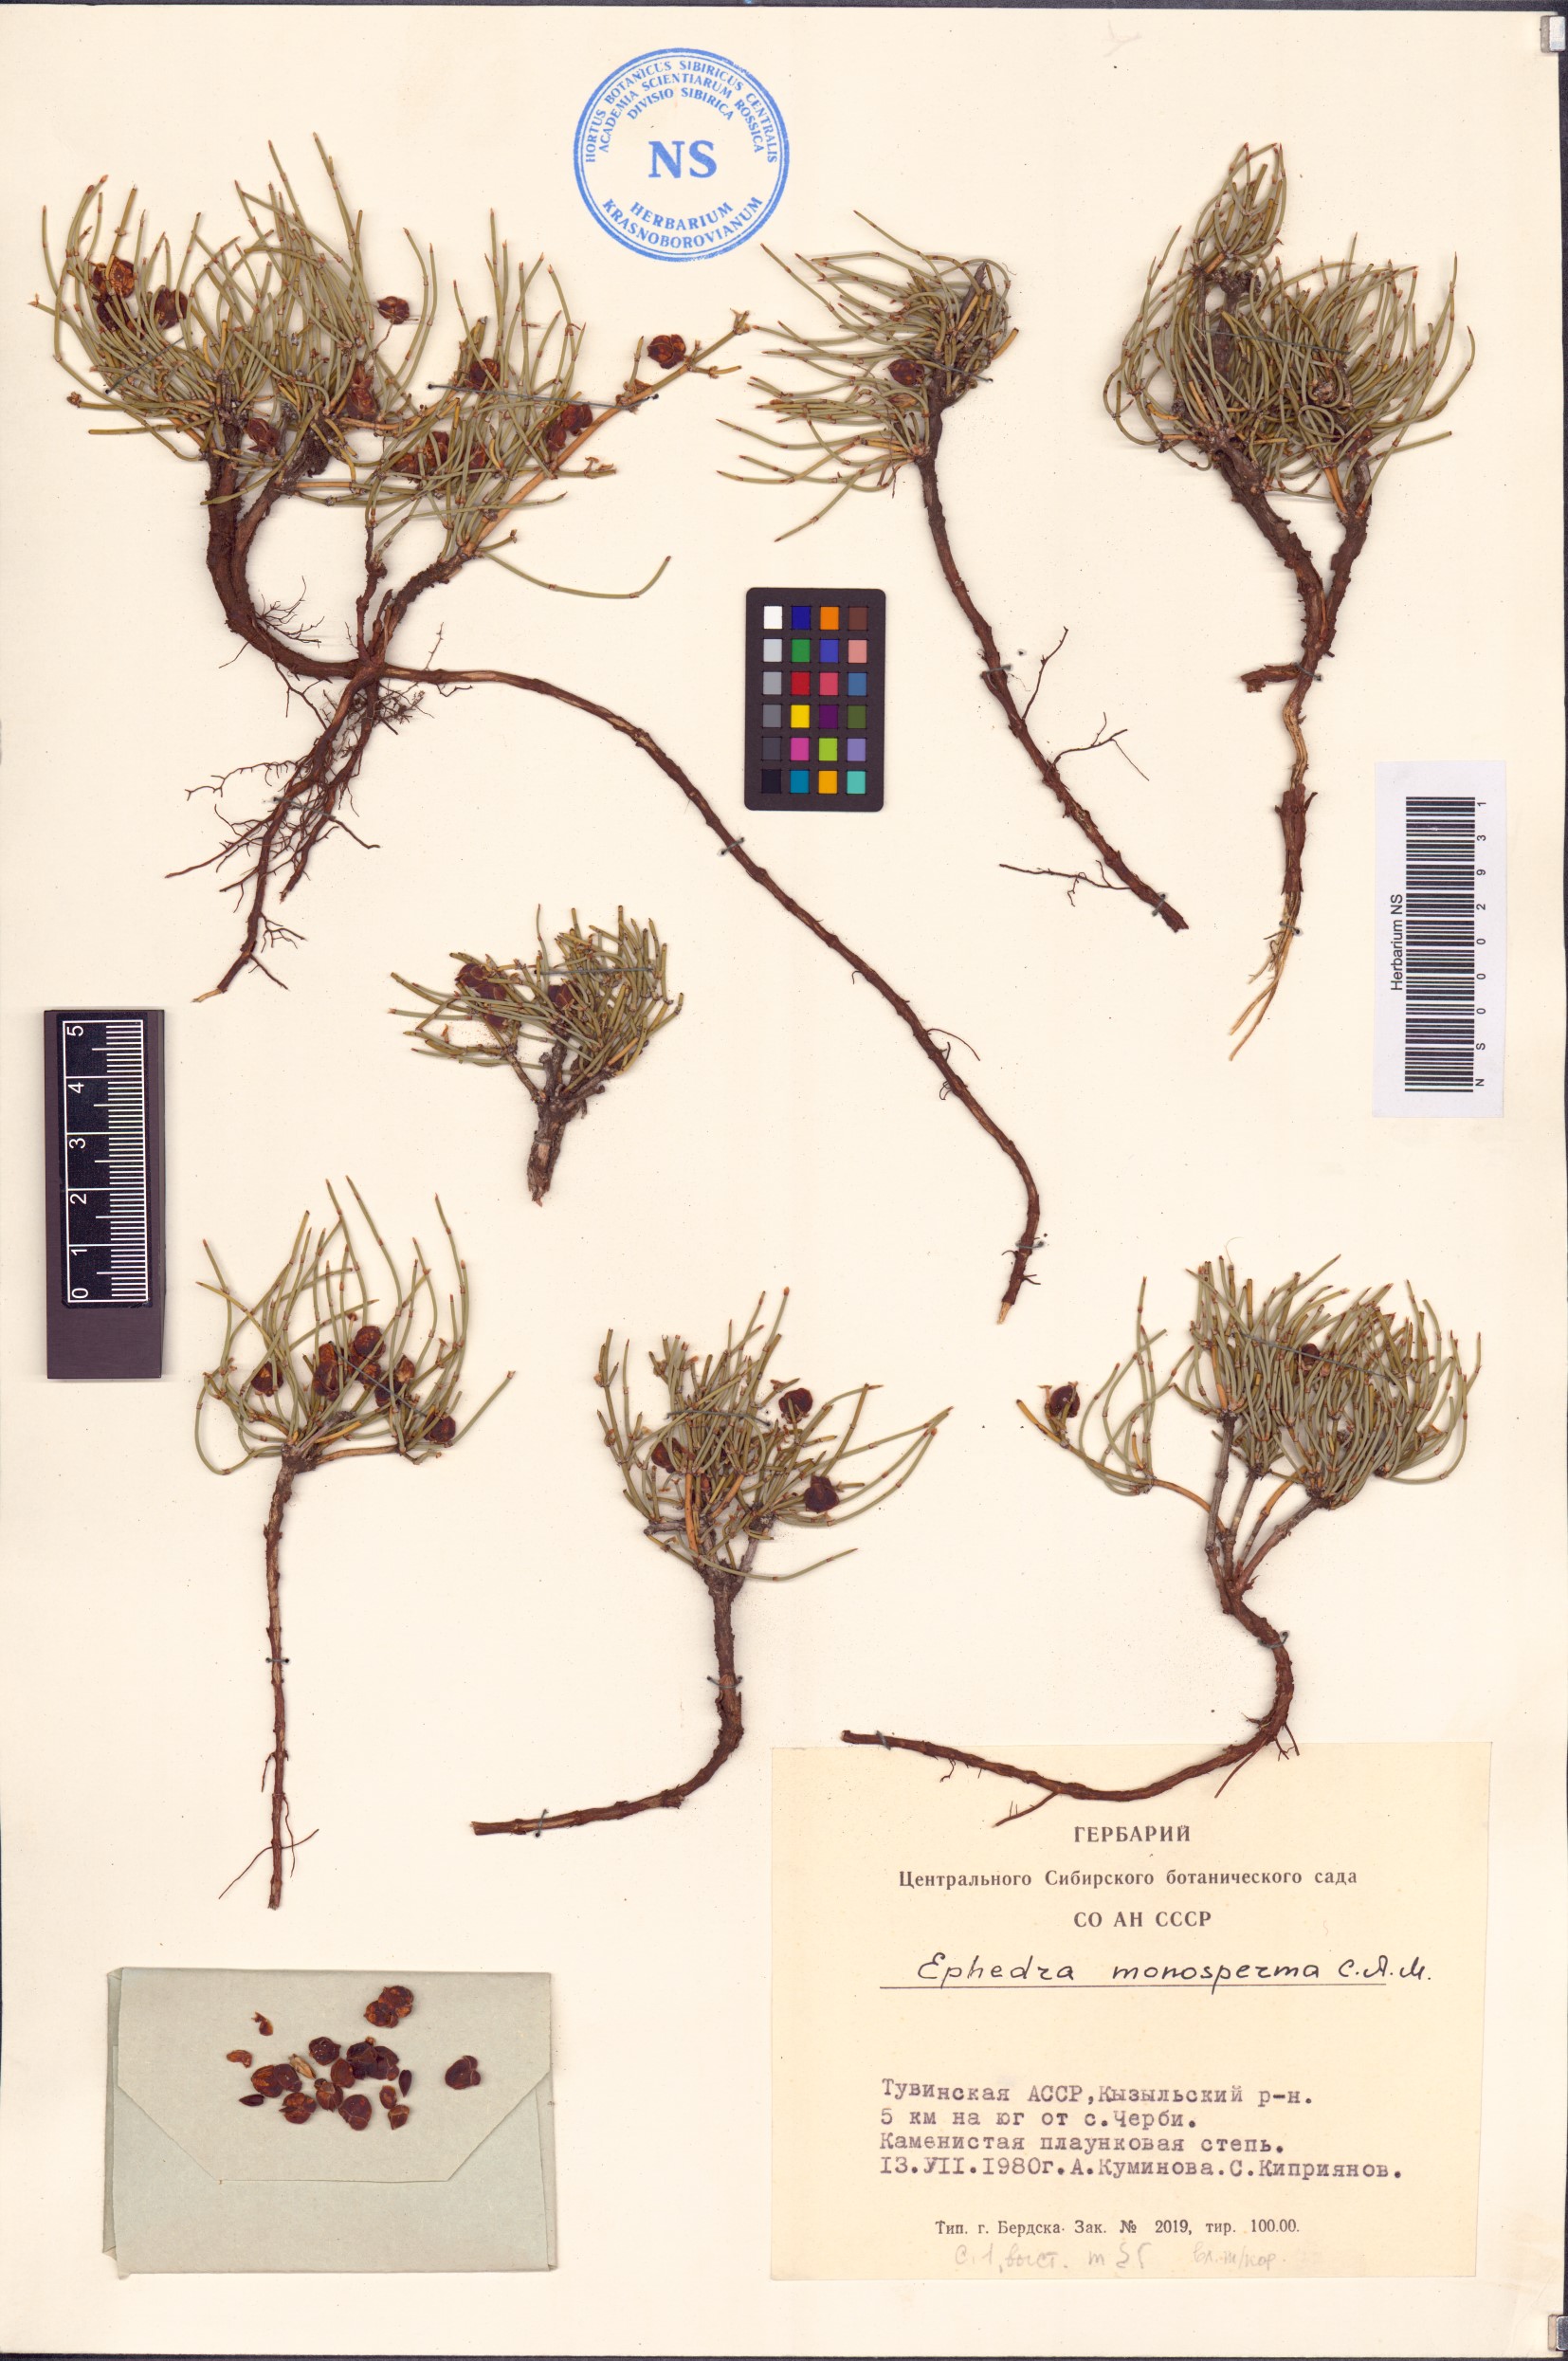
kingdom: Plantae
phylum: Tracheophyta
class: Gnetopsida
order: Ephedrales
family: Ephedraceae
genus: Ephedra
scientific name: Ephedra monosperma
